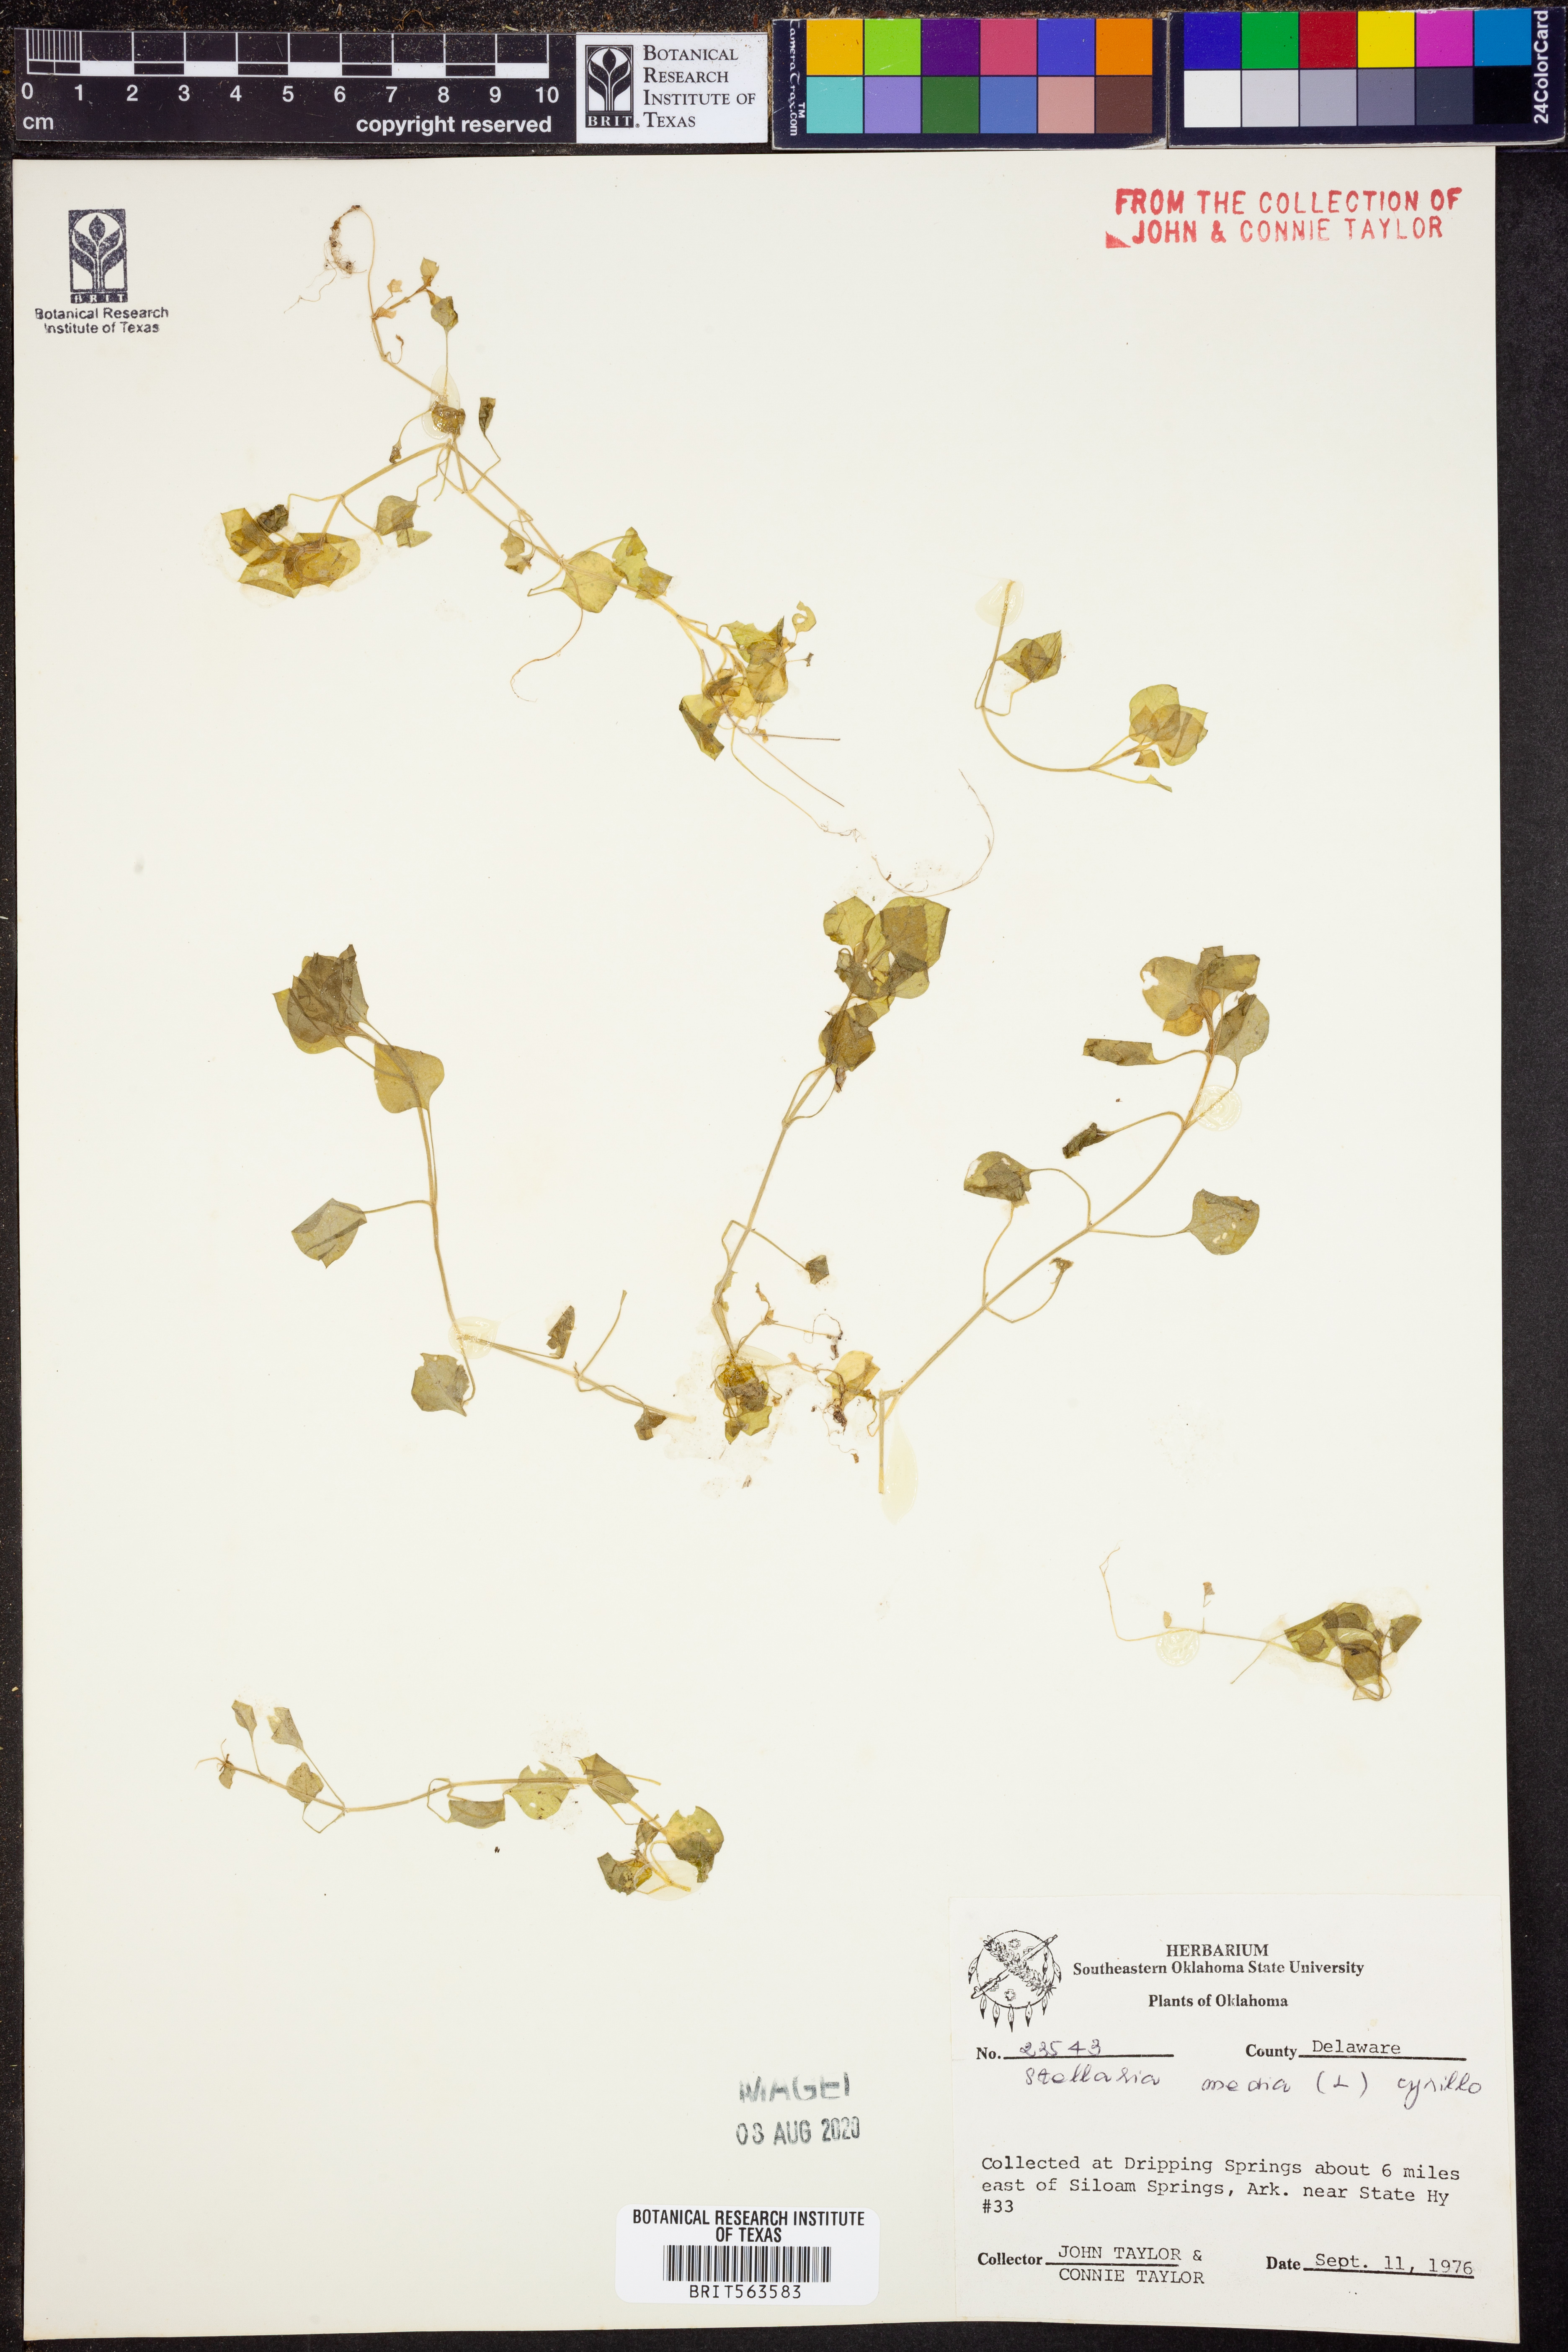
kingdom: Plantae
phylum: Tracheophyta
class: Magnoliopsida
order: Caryophyllales
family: Caryophyllaceae
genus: Stellaria
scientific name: Stellaria media
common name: Common chickweed
